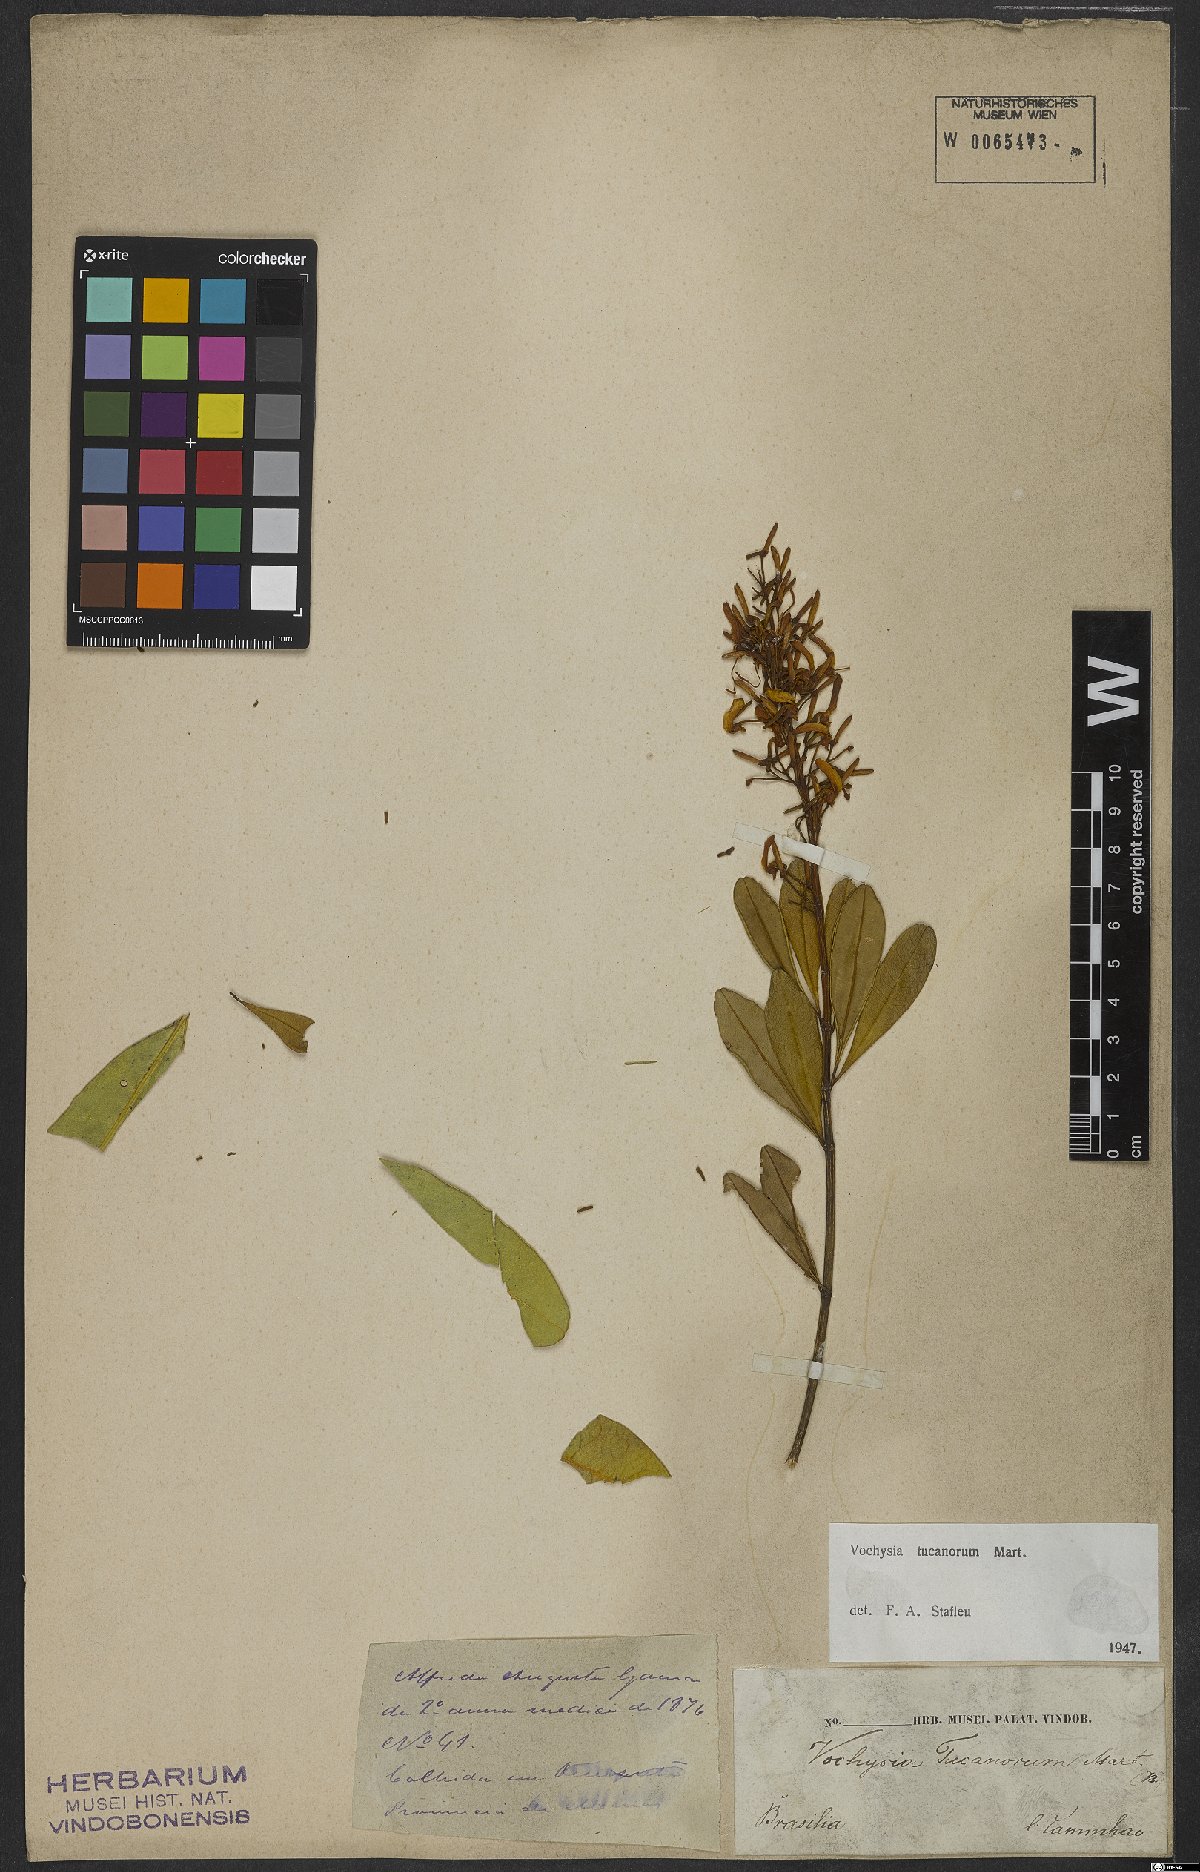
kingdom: Plantae
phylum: Tracheophyta
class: Magnoliopsida
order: Myrtales
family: Vochysiaceae
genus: Vochysia
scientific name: Vochysia tucanorum
